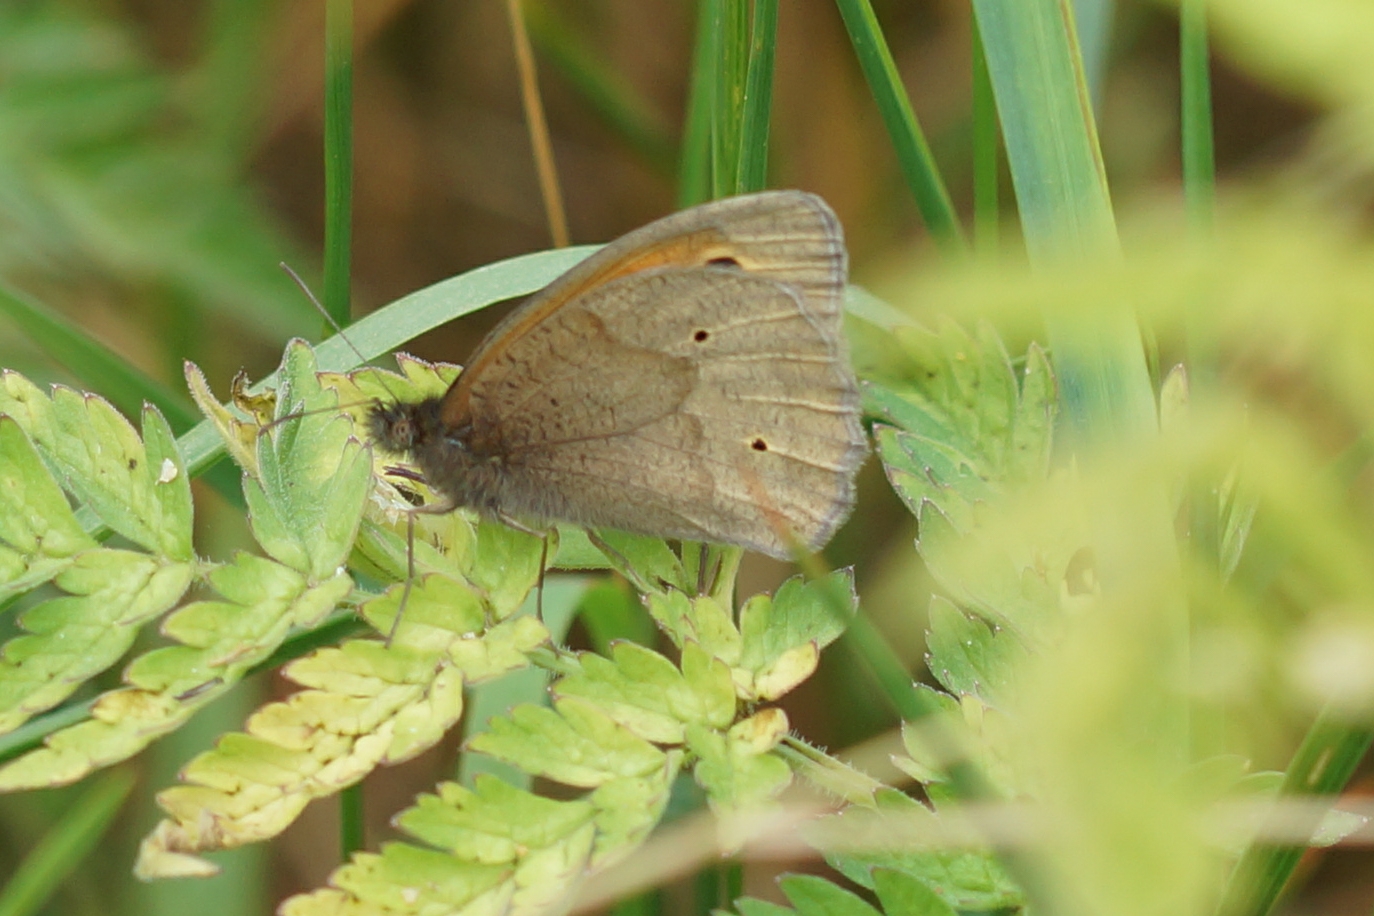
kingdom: Animalia
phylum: Arthropoda
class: Insecta
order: Lepidoptera
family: Nymphalidae
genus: Maniola
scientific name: Maniola jurtina
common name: Græsrandøje
